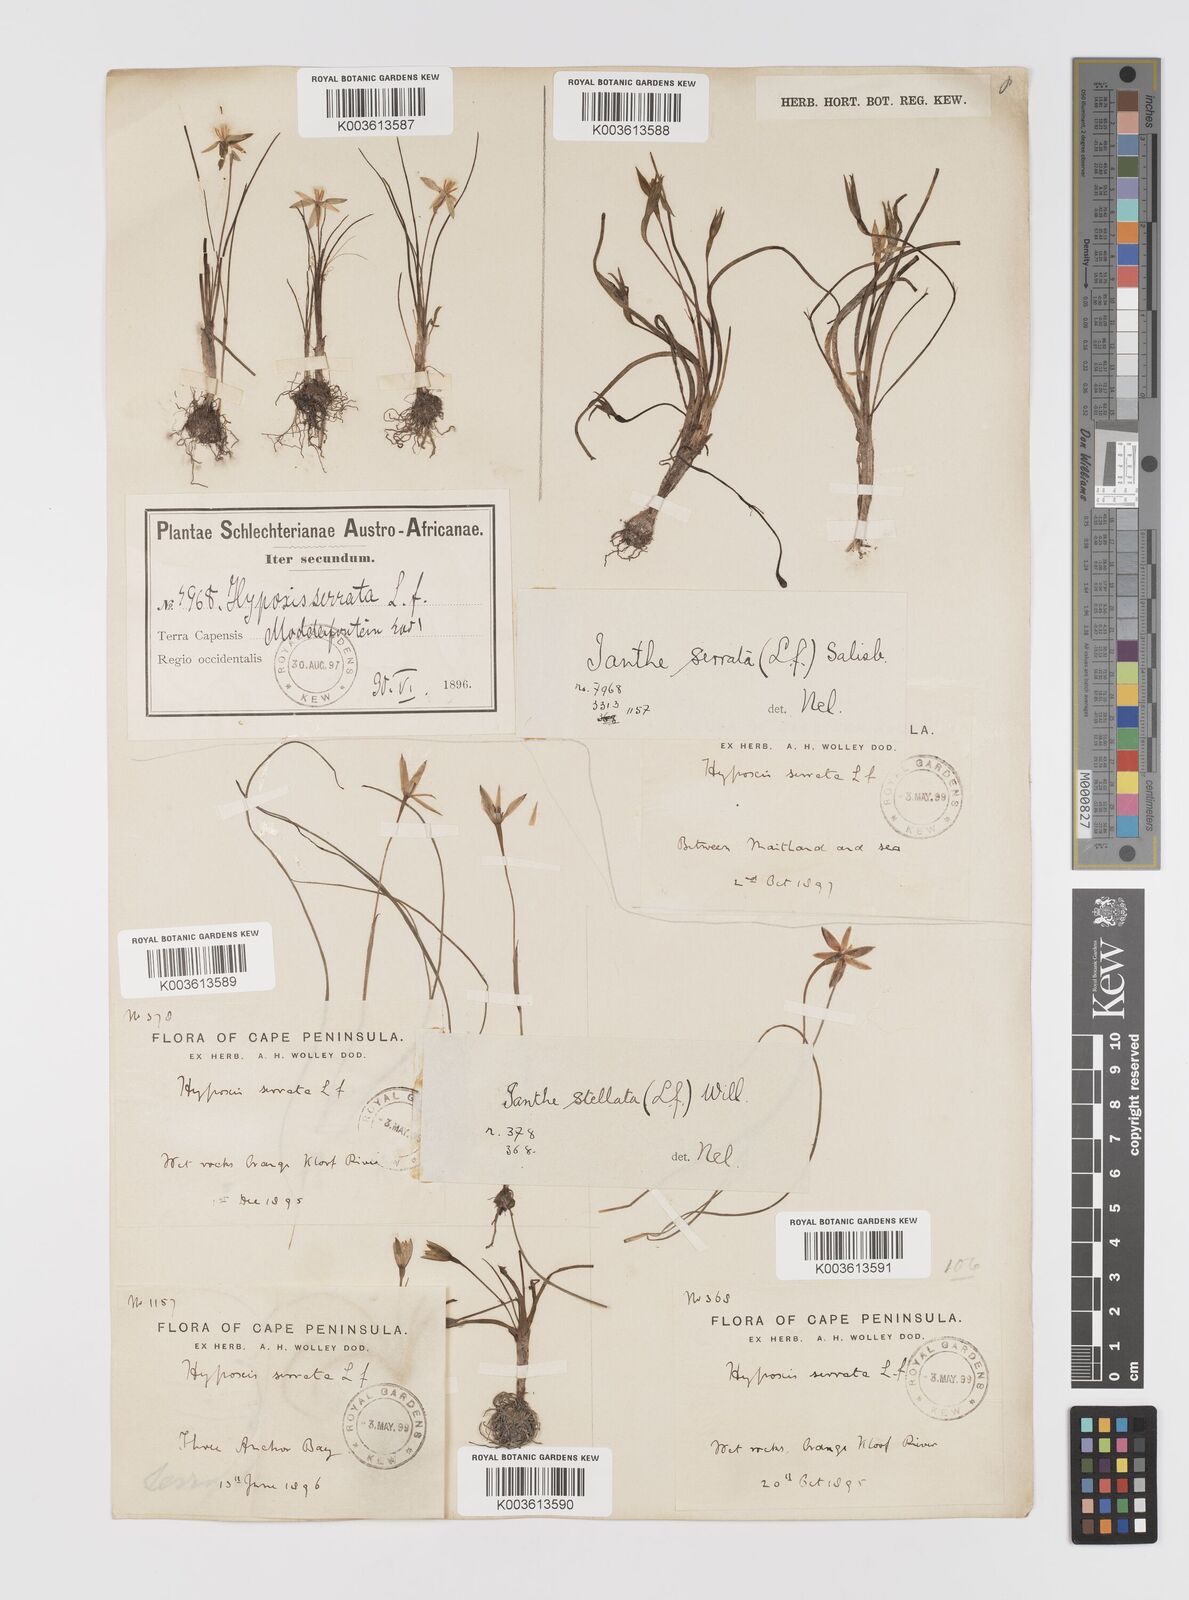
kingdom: Plantae
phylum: Tracheophyta
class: Liliopsida
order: Asparagales
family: Hypoxidaceae
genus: Pauridia
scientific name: Pauridia serrata
